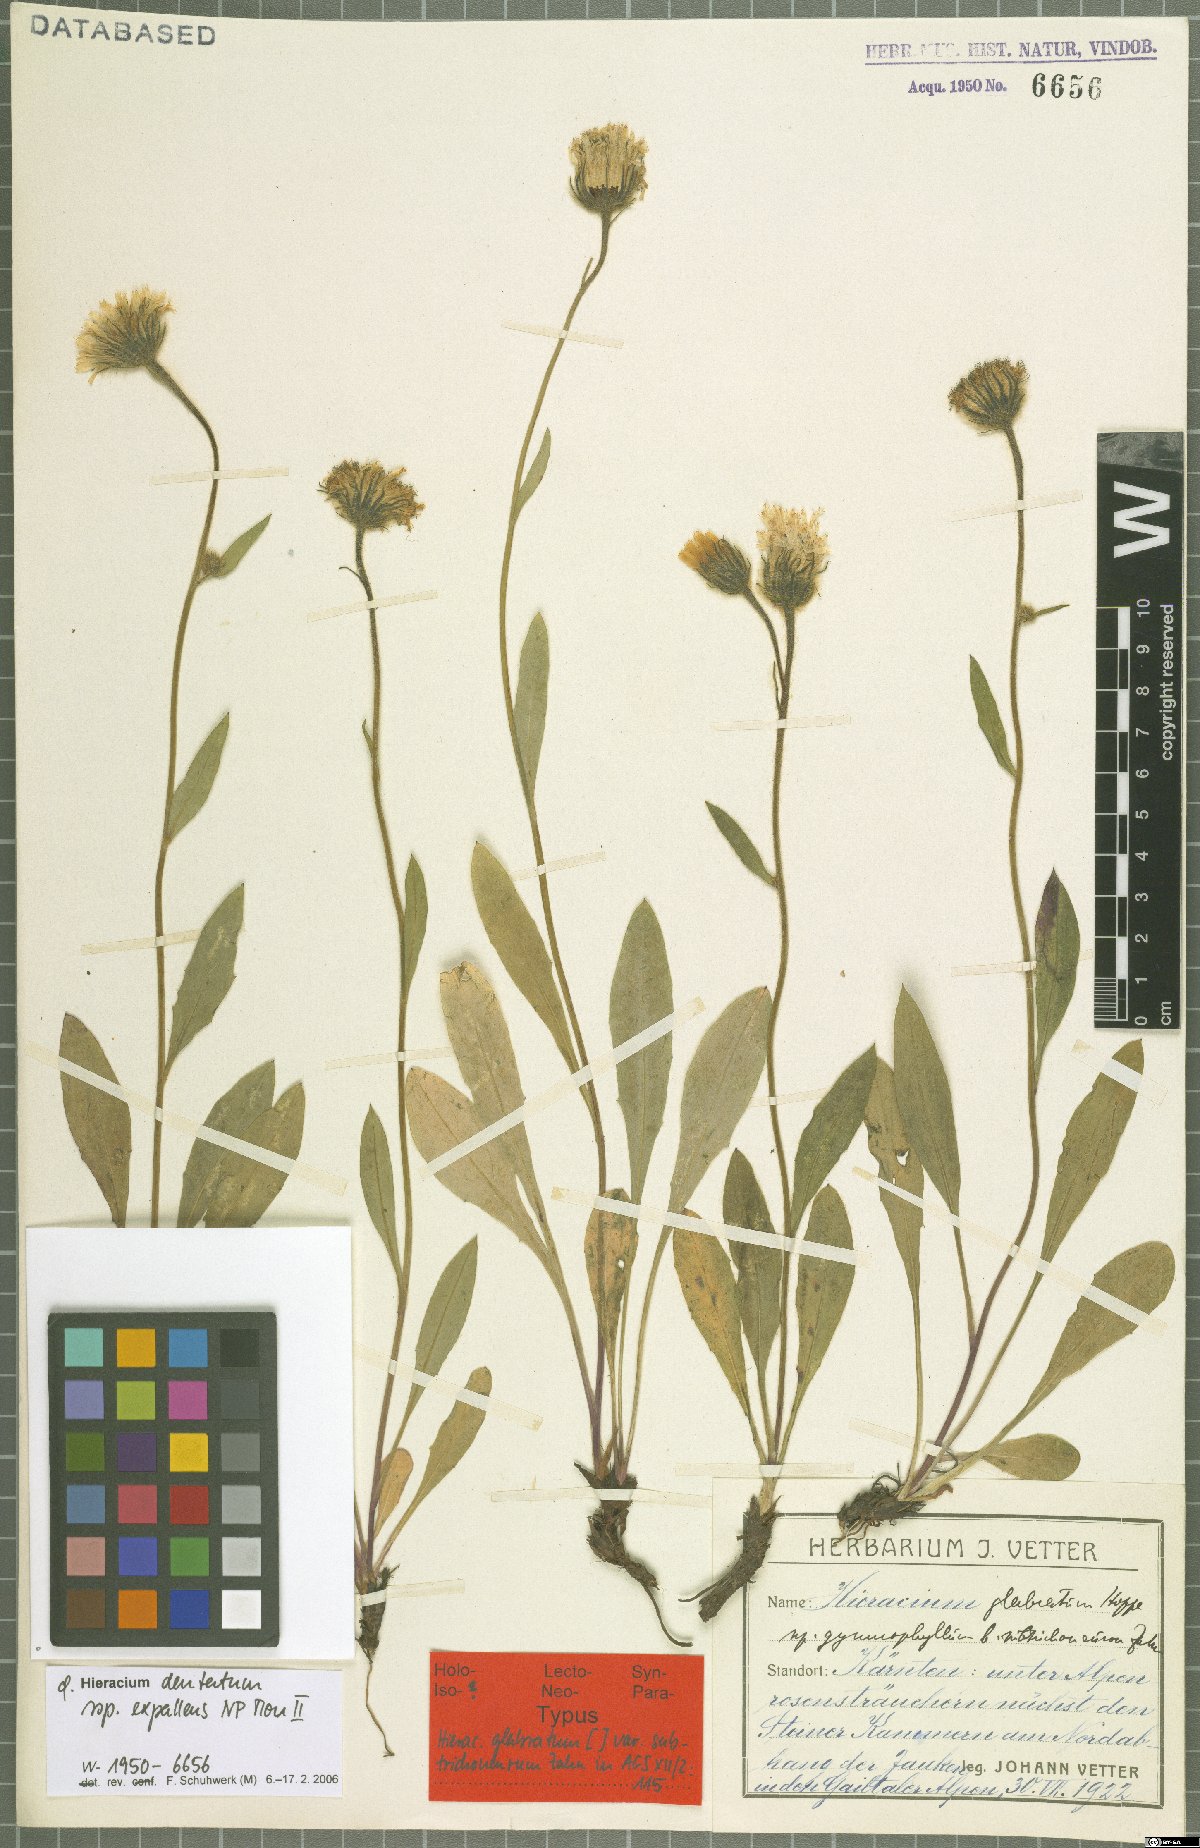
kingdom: Plantae
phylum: Tracheophyta
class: Magnoliopsida
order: Asterales
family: Asteraceae
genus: Hieracium
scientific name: Hieracium dentatum
